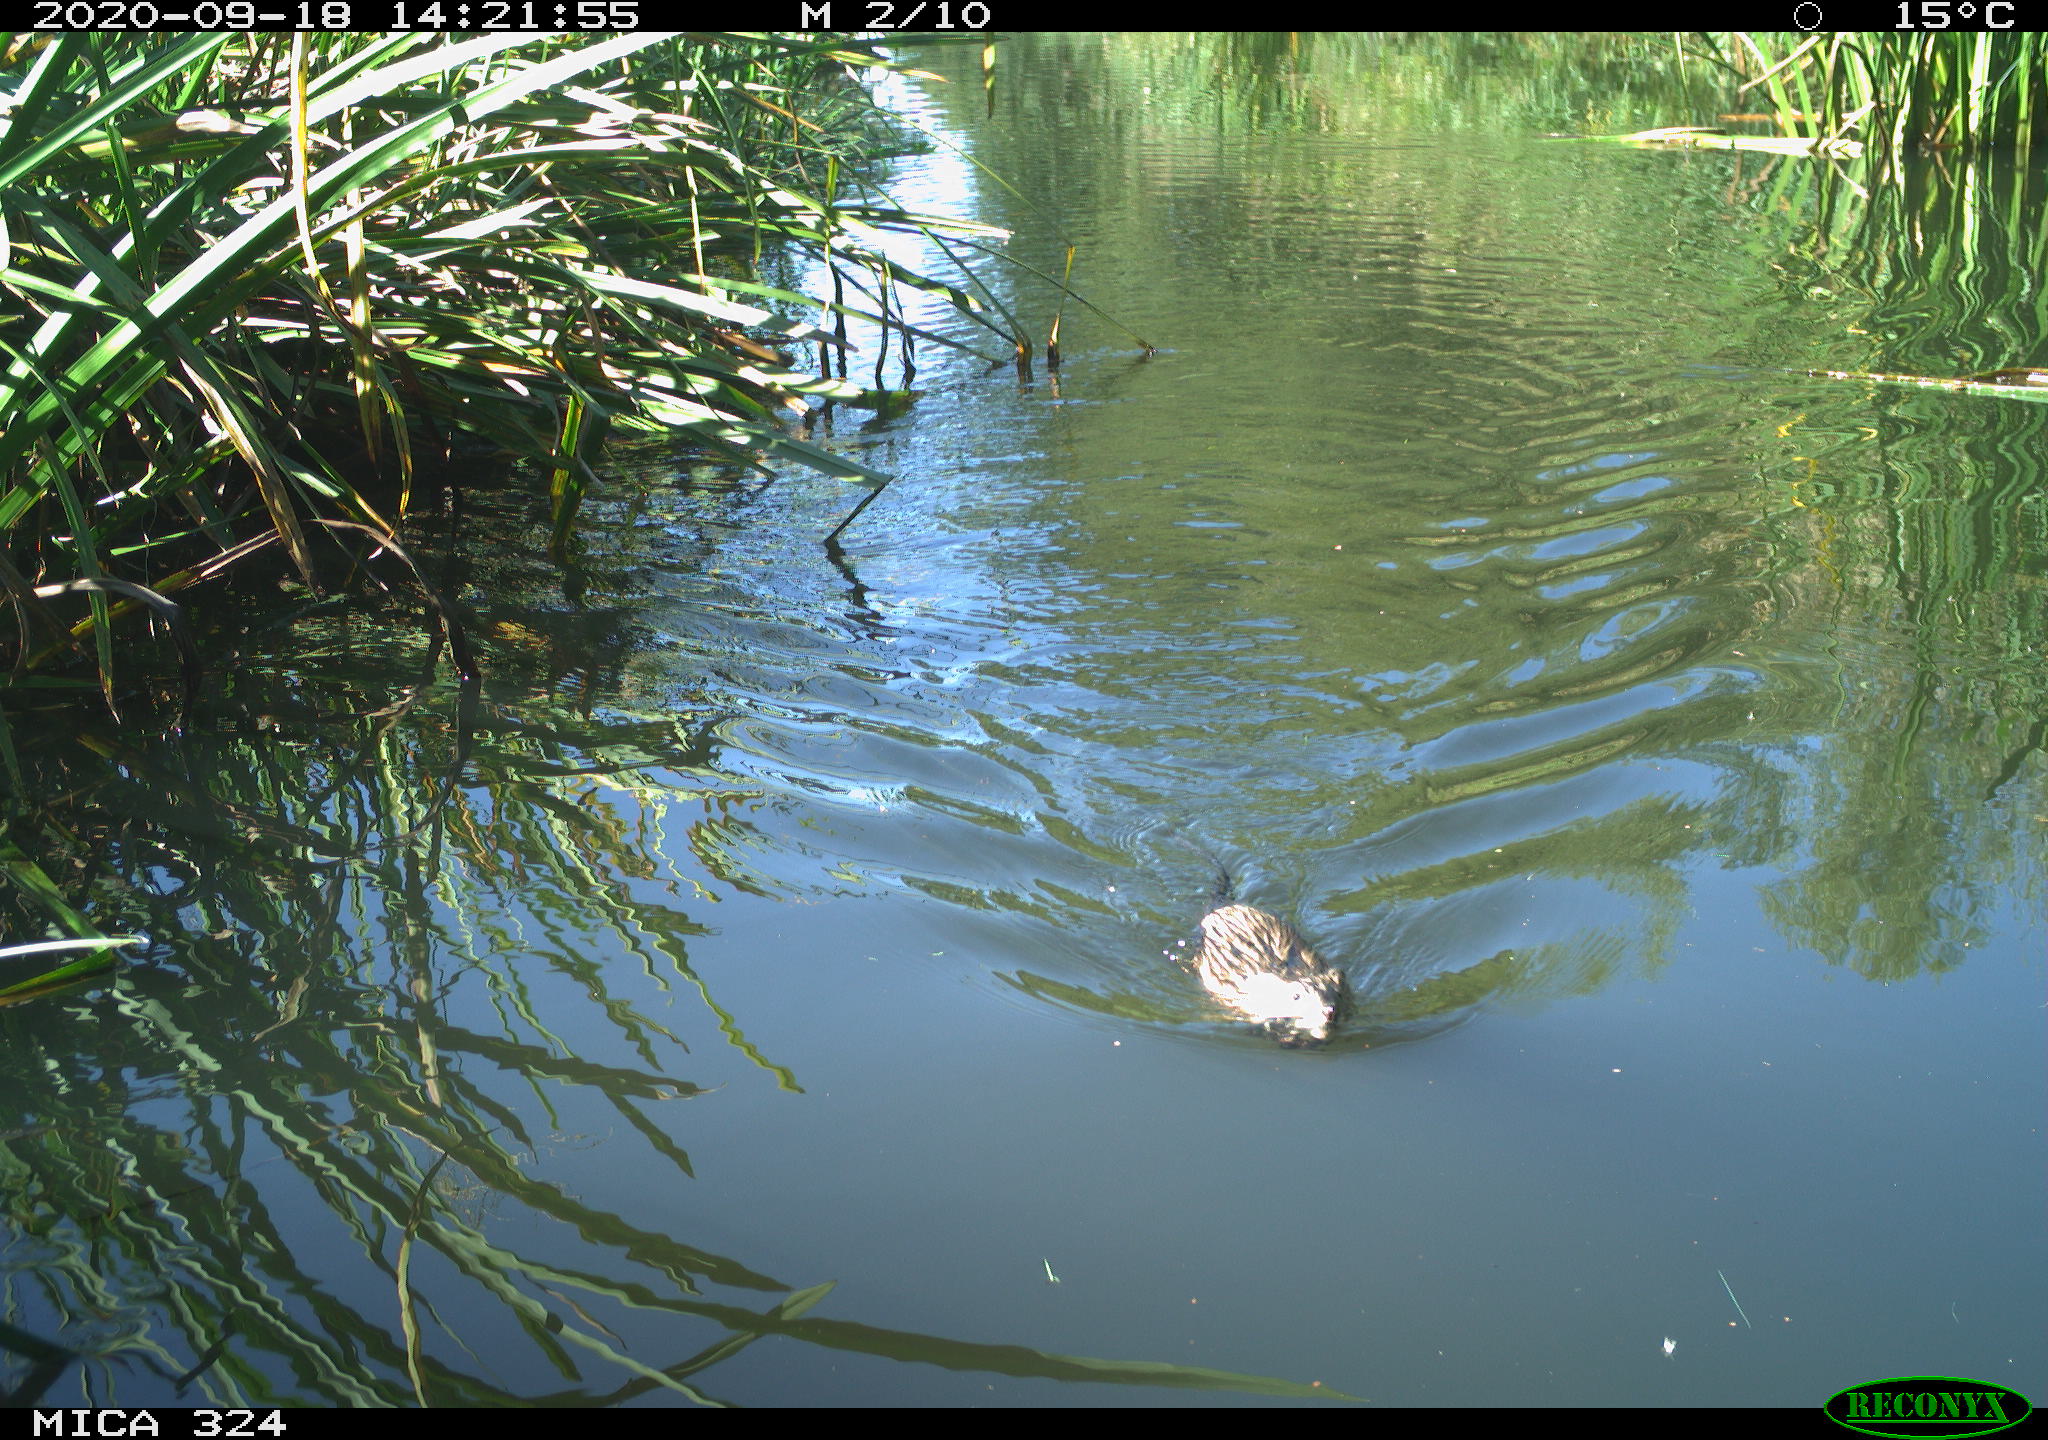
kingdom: Animalia
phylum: Chordata
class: Mammalia
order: Rodentia
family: Cricetidae
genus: Ondatra
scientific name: Ondatra zibethicus
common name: Muskrat
